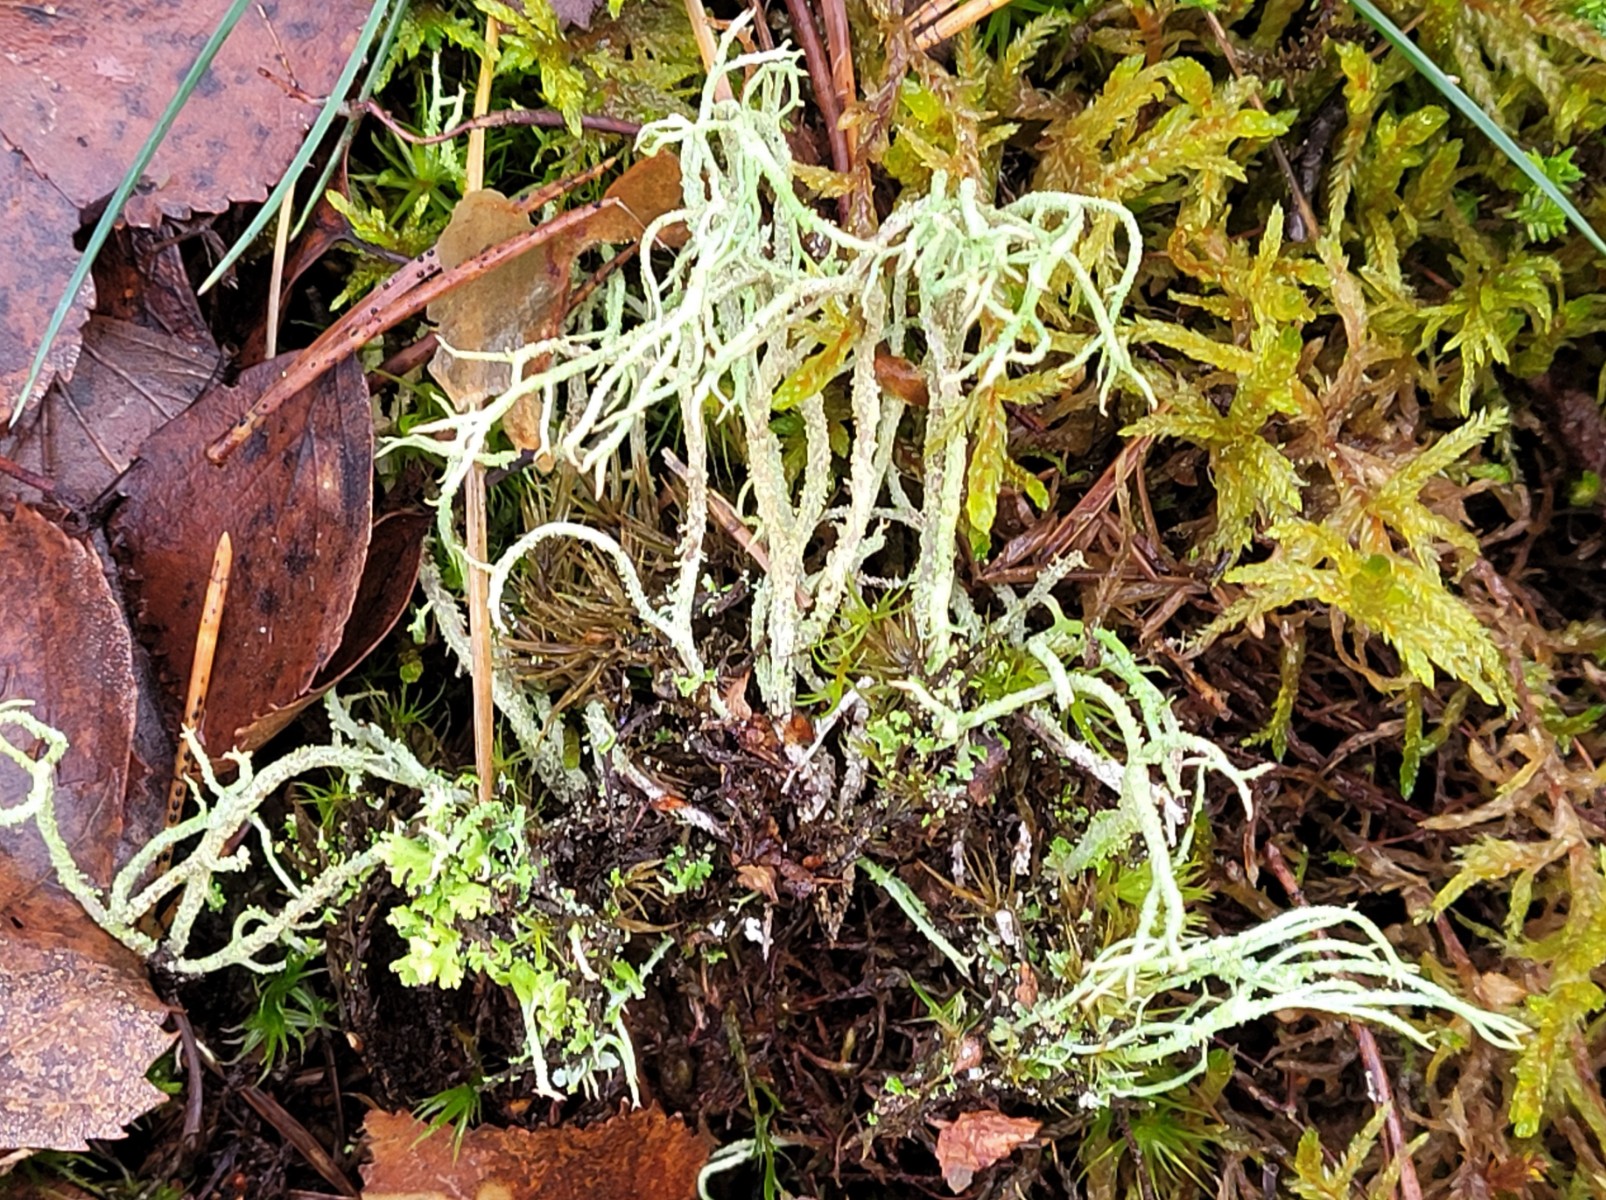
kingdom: Fungi
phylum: Ascomycota
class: Lecanoromycetes
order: Lecanorales
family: Cladoniaceae
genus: Cladonia
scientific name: Cladonia scabriuscula
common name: ru bægerlav
